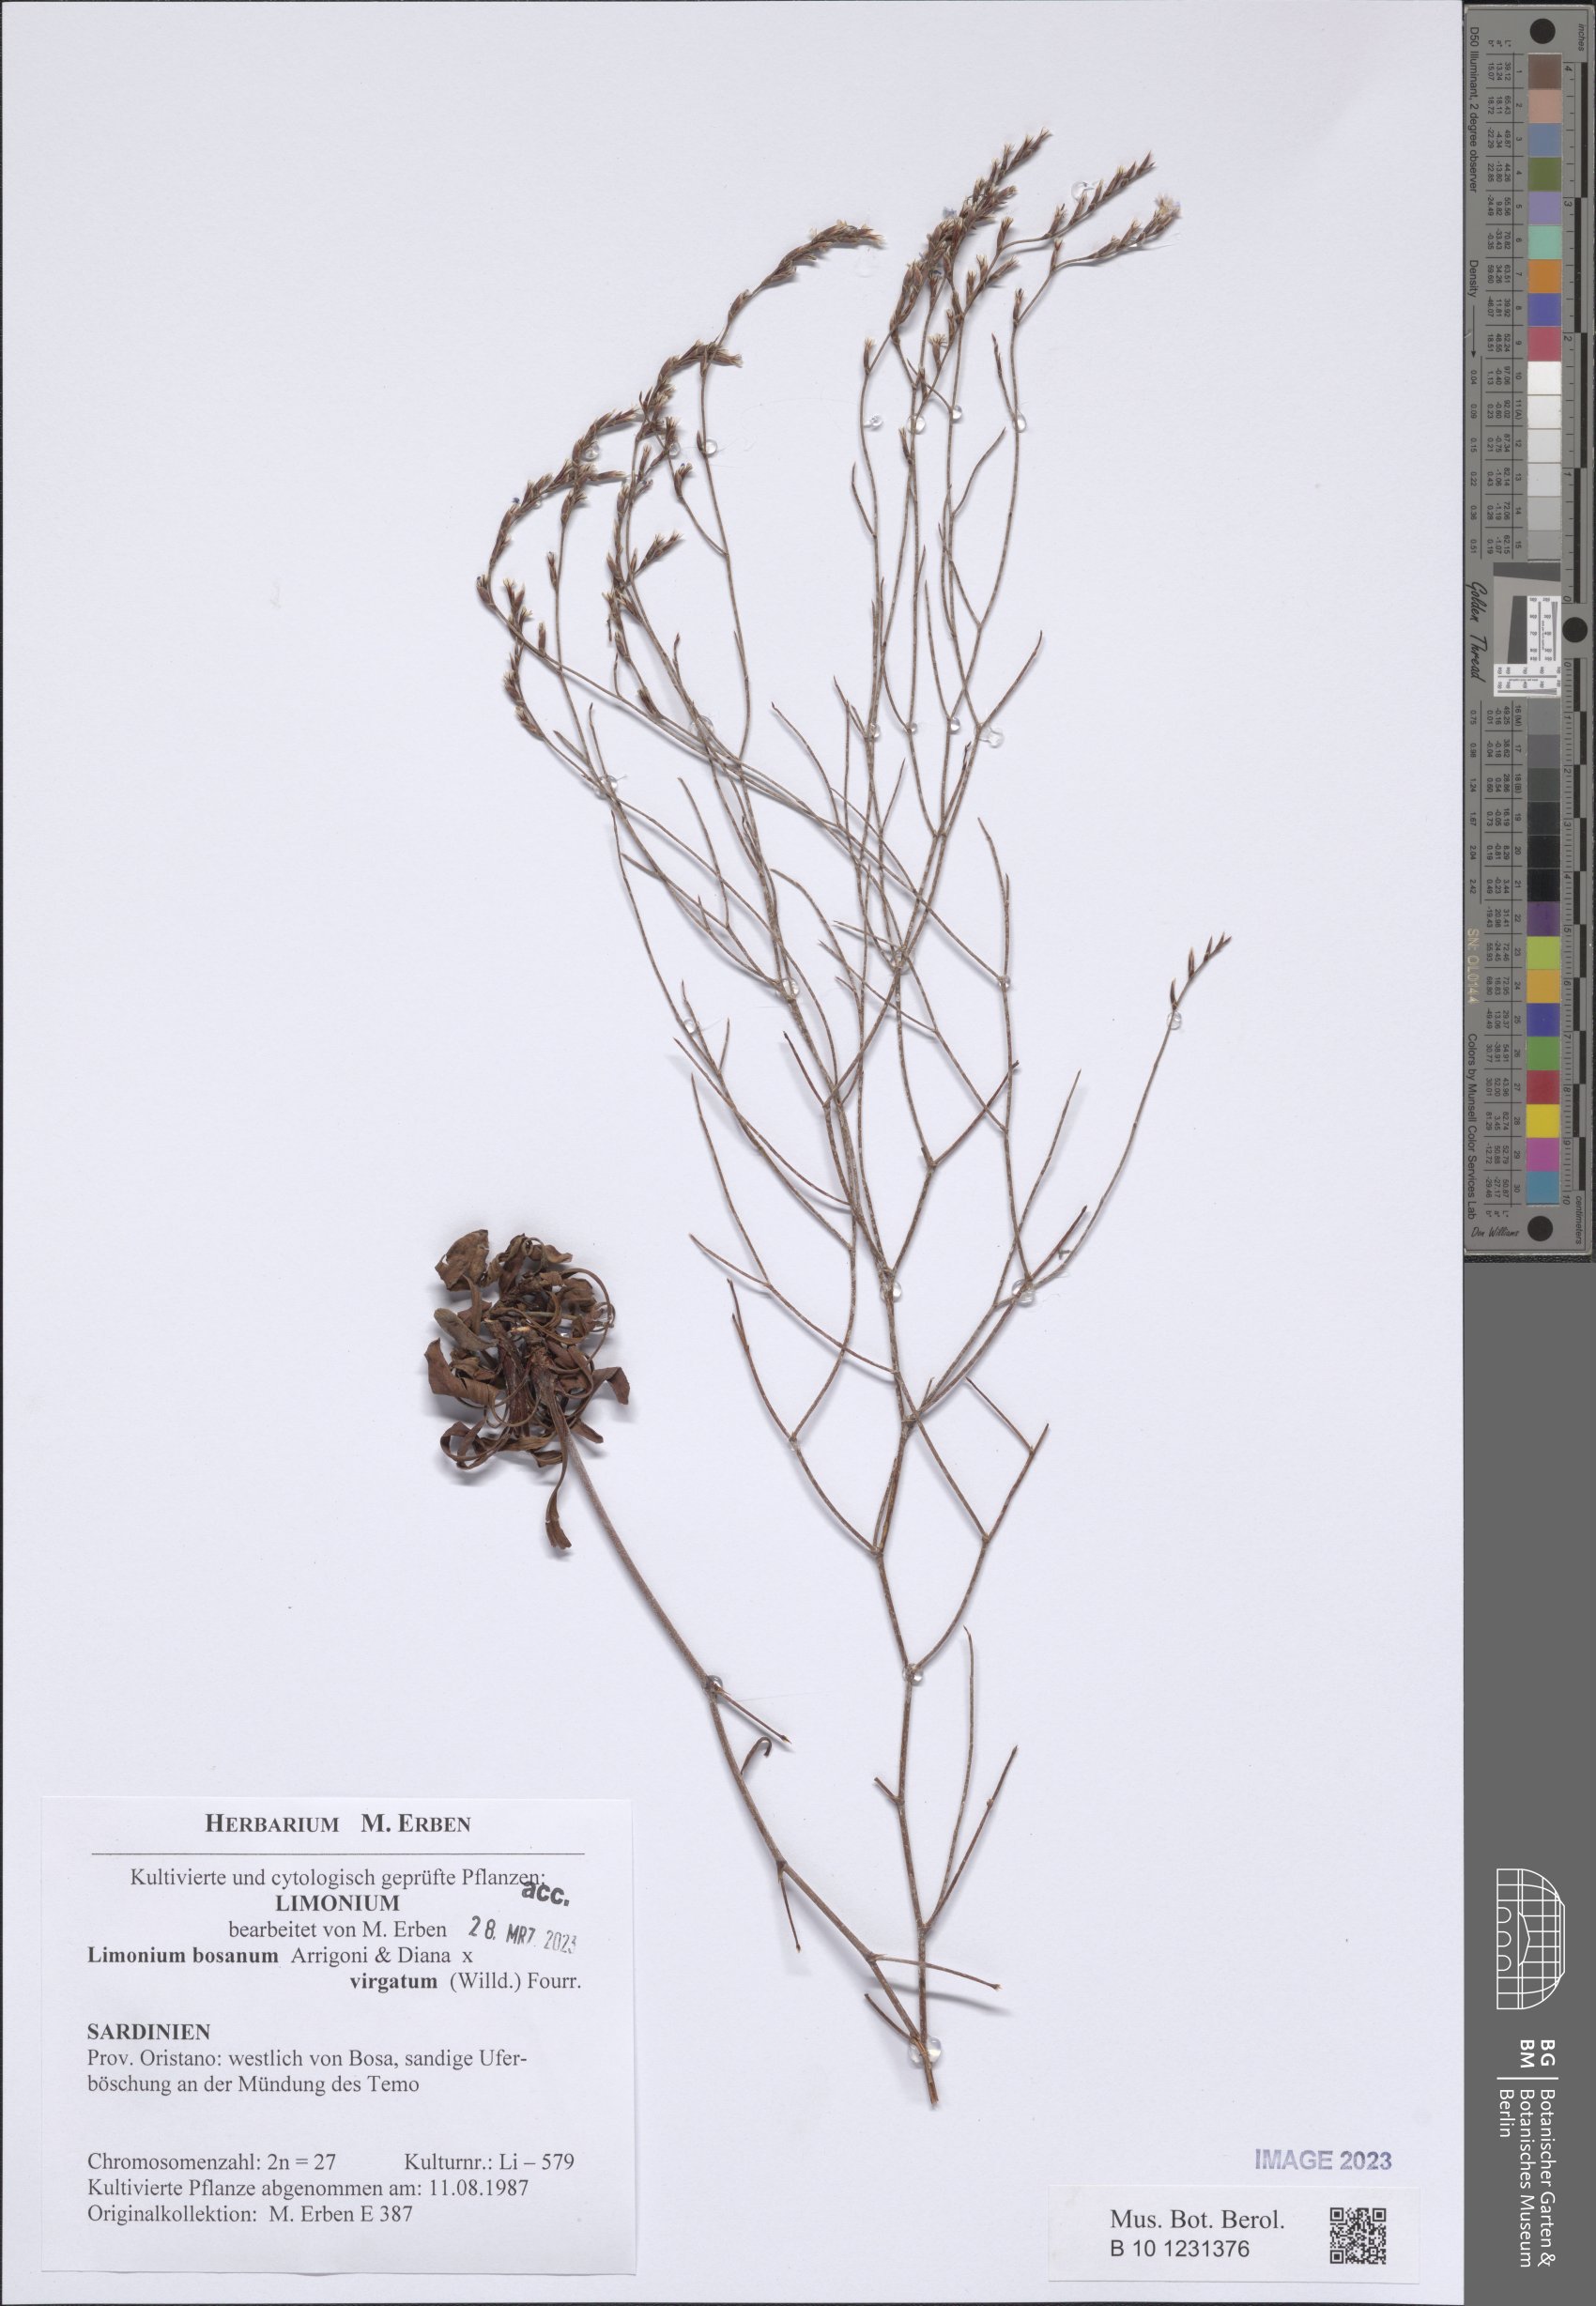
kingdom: Plantae
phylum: Tracheophyta
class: Magnoliopsida
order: Caryophyllales
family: Plumbaginaceae
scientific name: Plumbaginaceae
